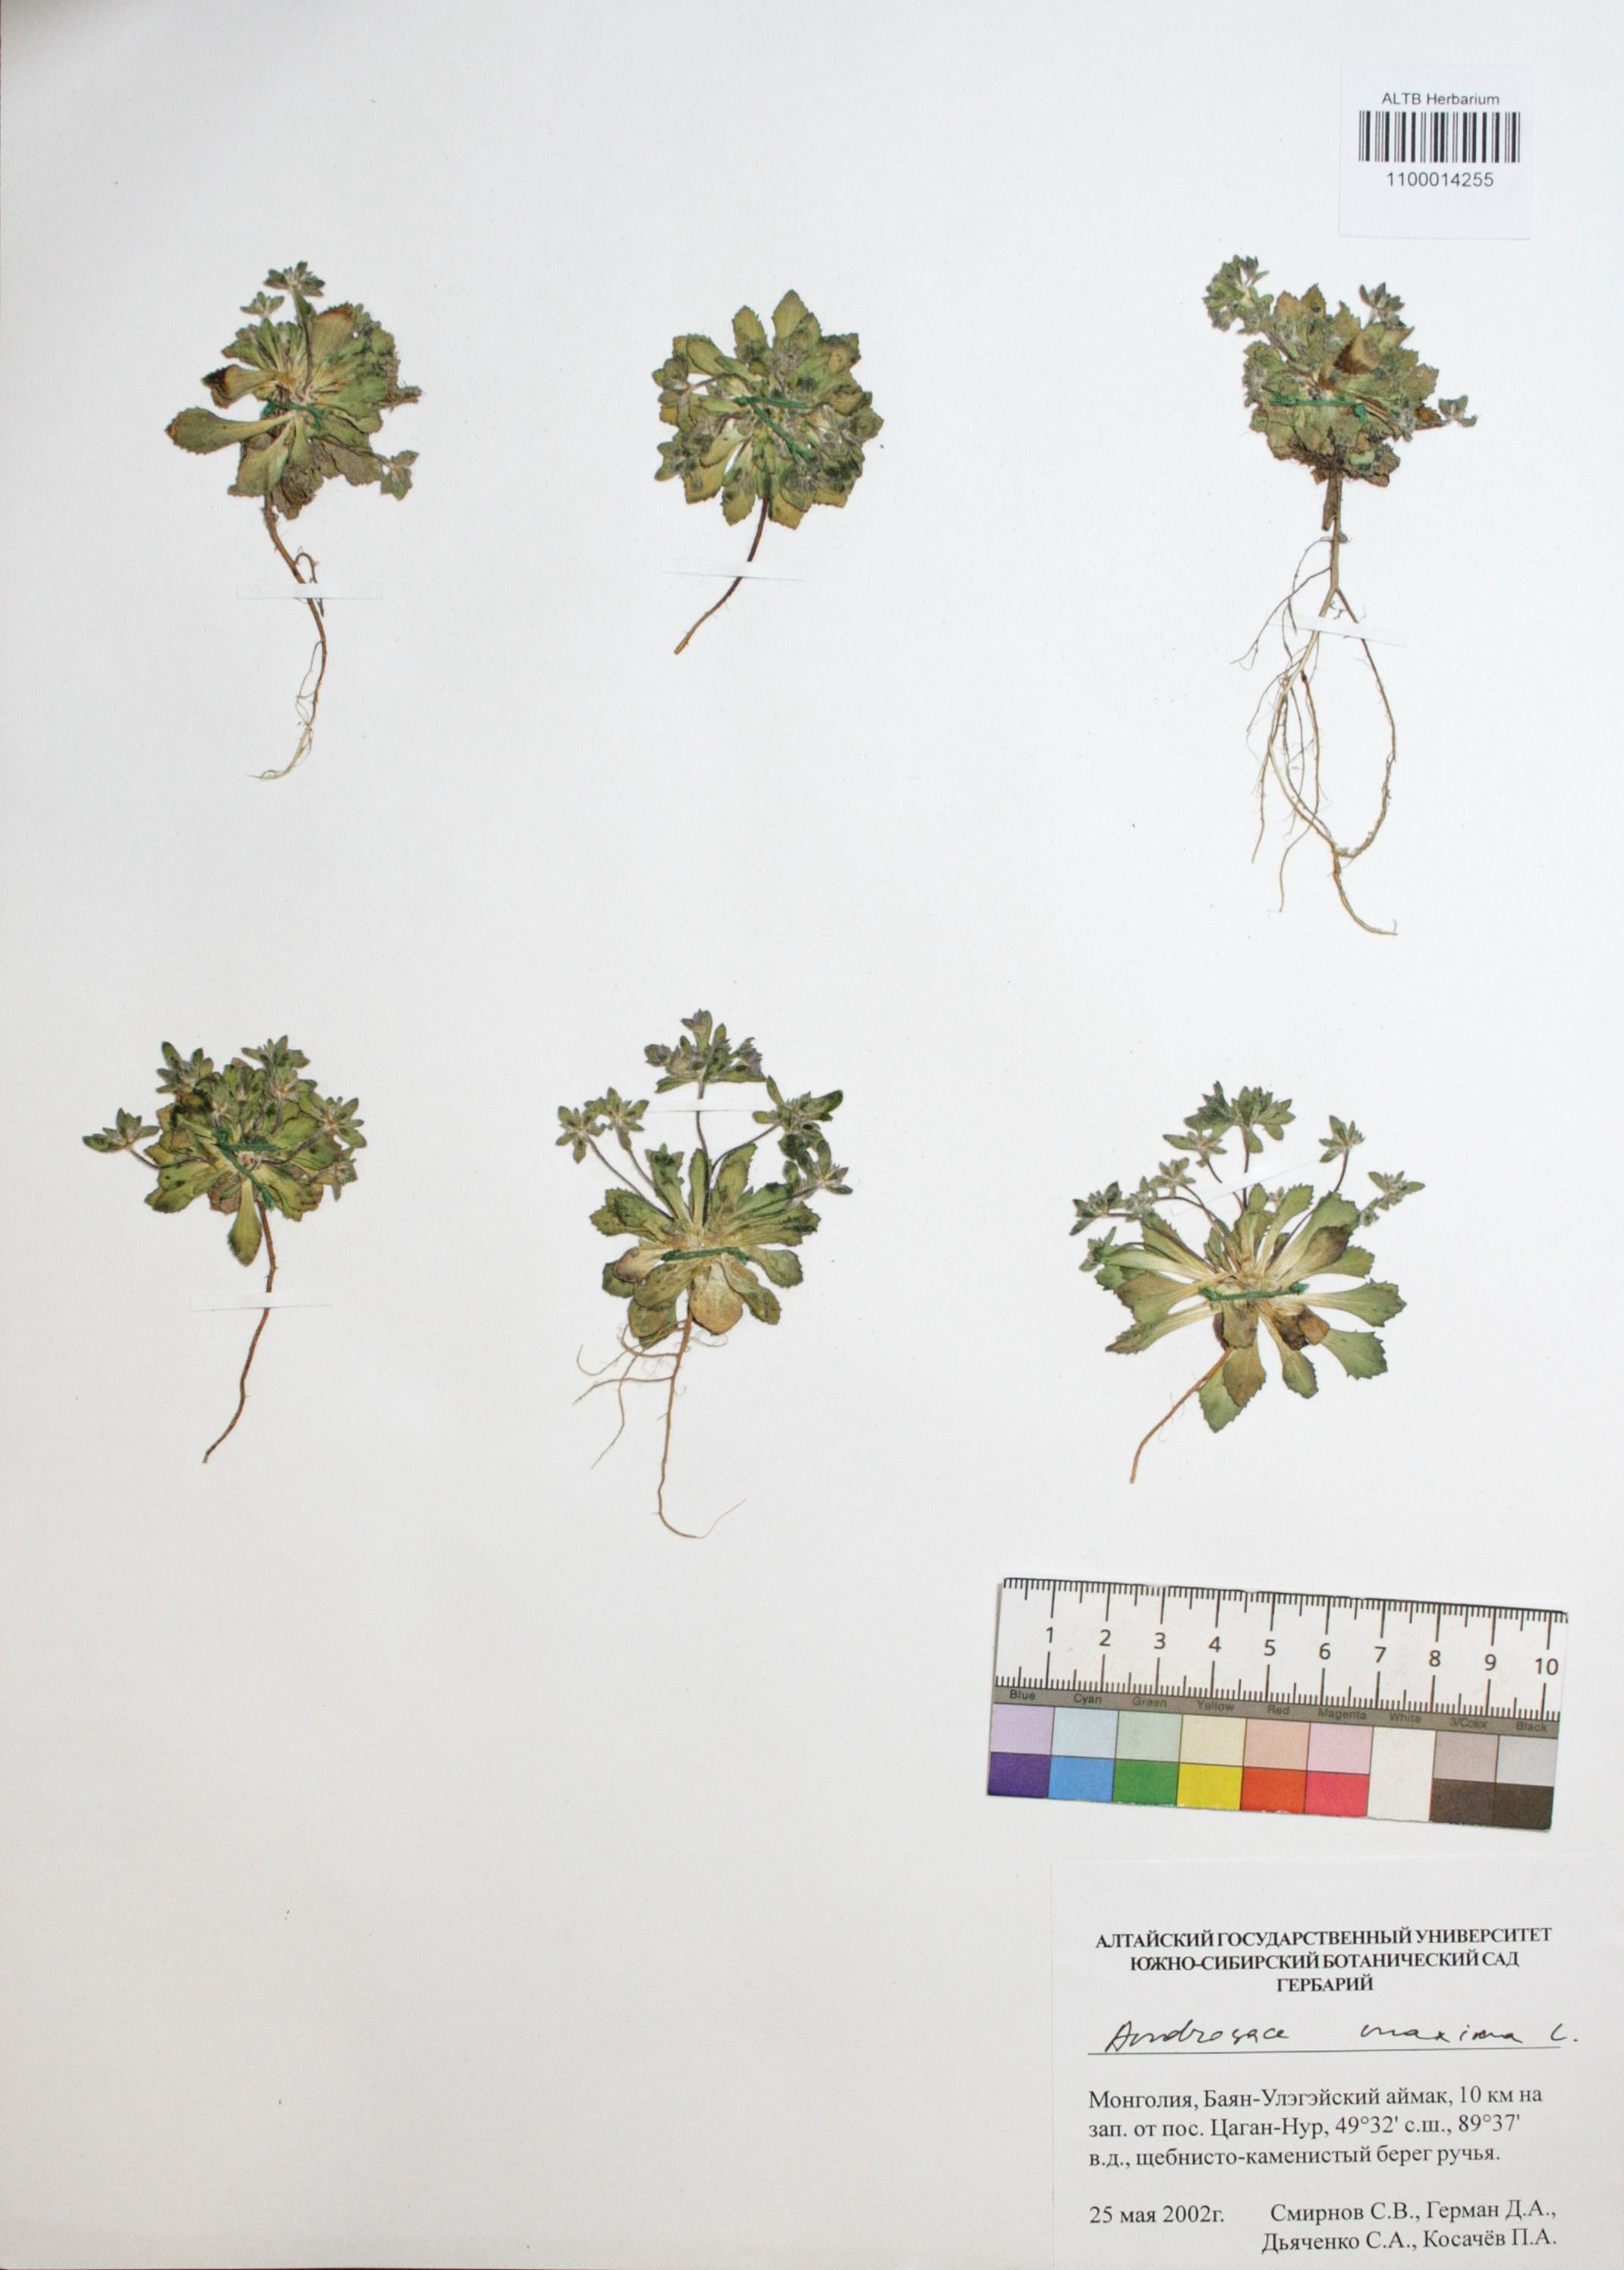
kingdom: Plantae
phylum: Tracheophyta
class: Magnoliopsida
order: Ericales
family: Primulaceae
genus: Androsace
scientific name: Androsace maxima
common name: Annual androsace
